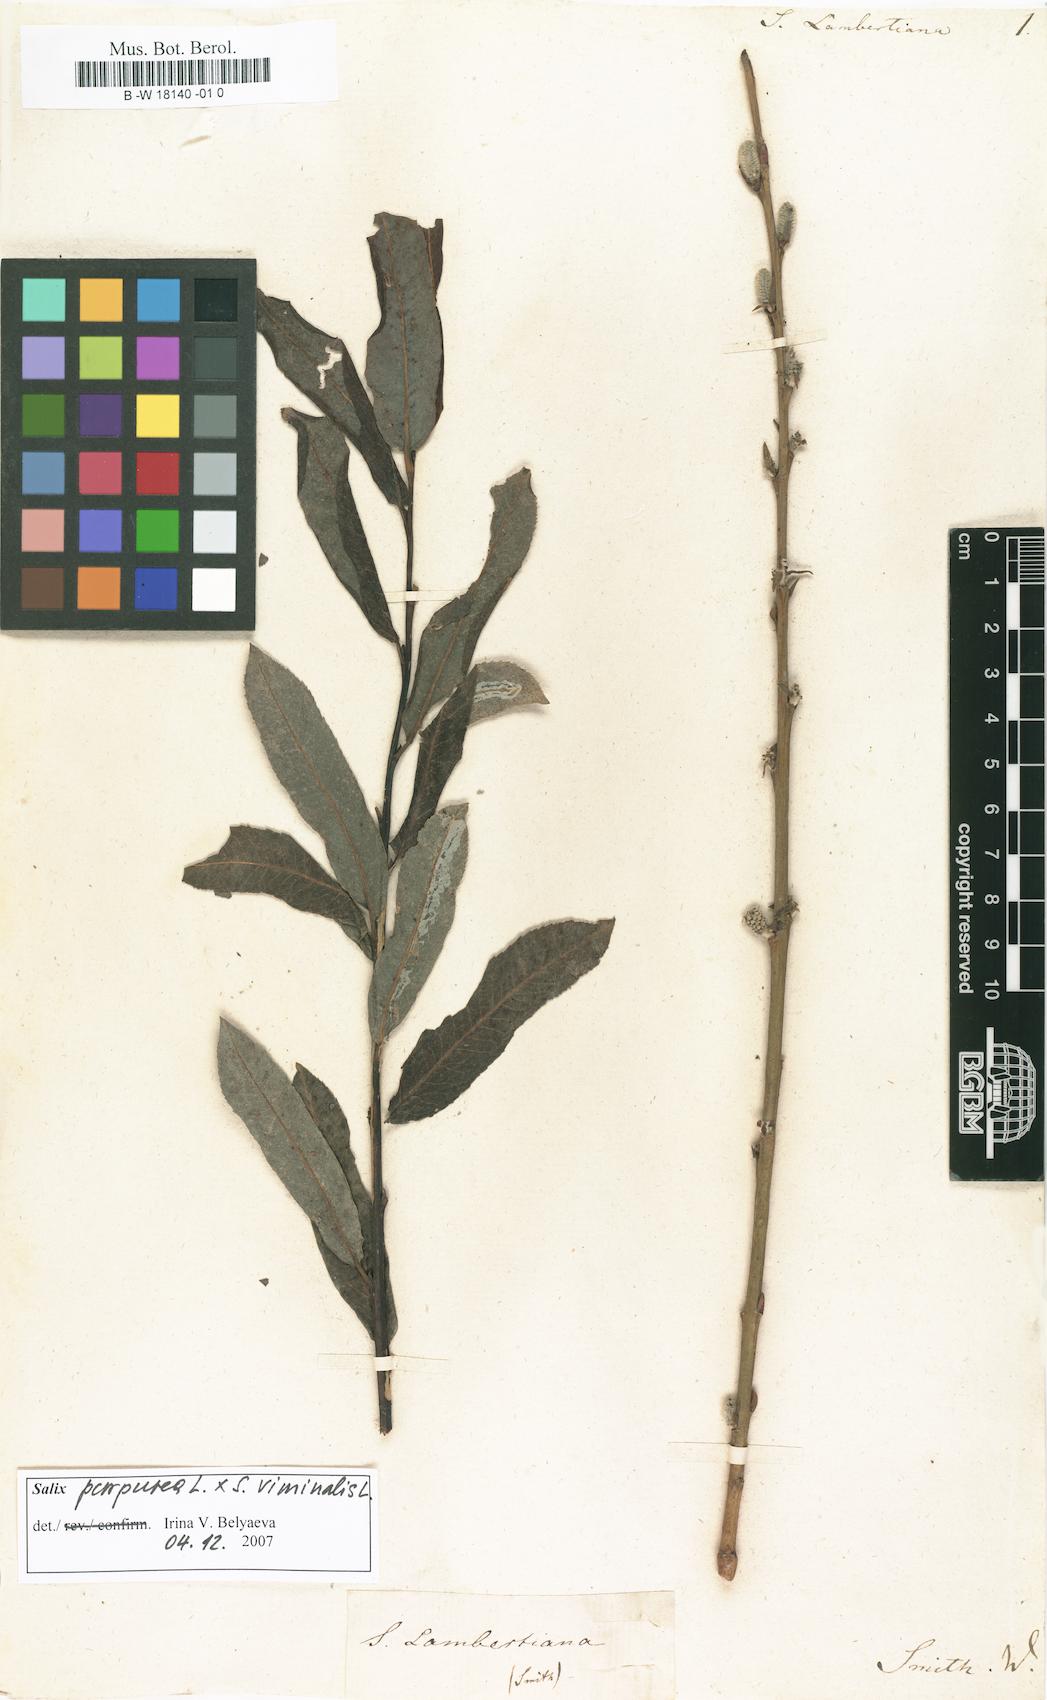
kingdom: Plantae
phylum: Tracheophyta
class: Magnoliopsida
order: Malpighiales
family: Salicaceae
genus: Salix
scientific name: Salix lambertiana
